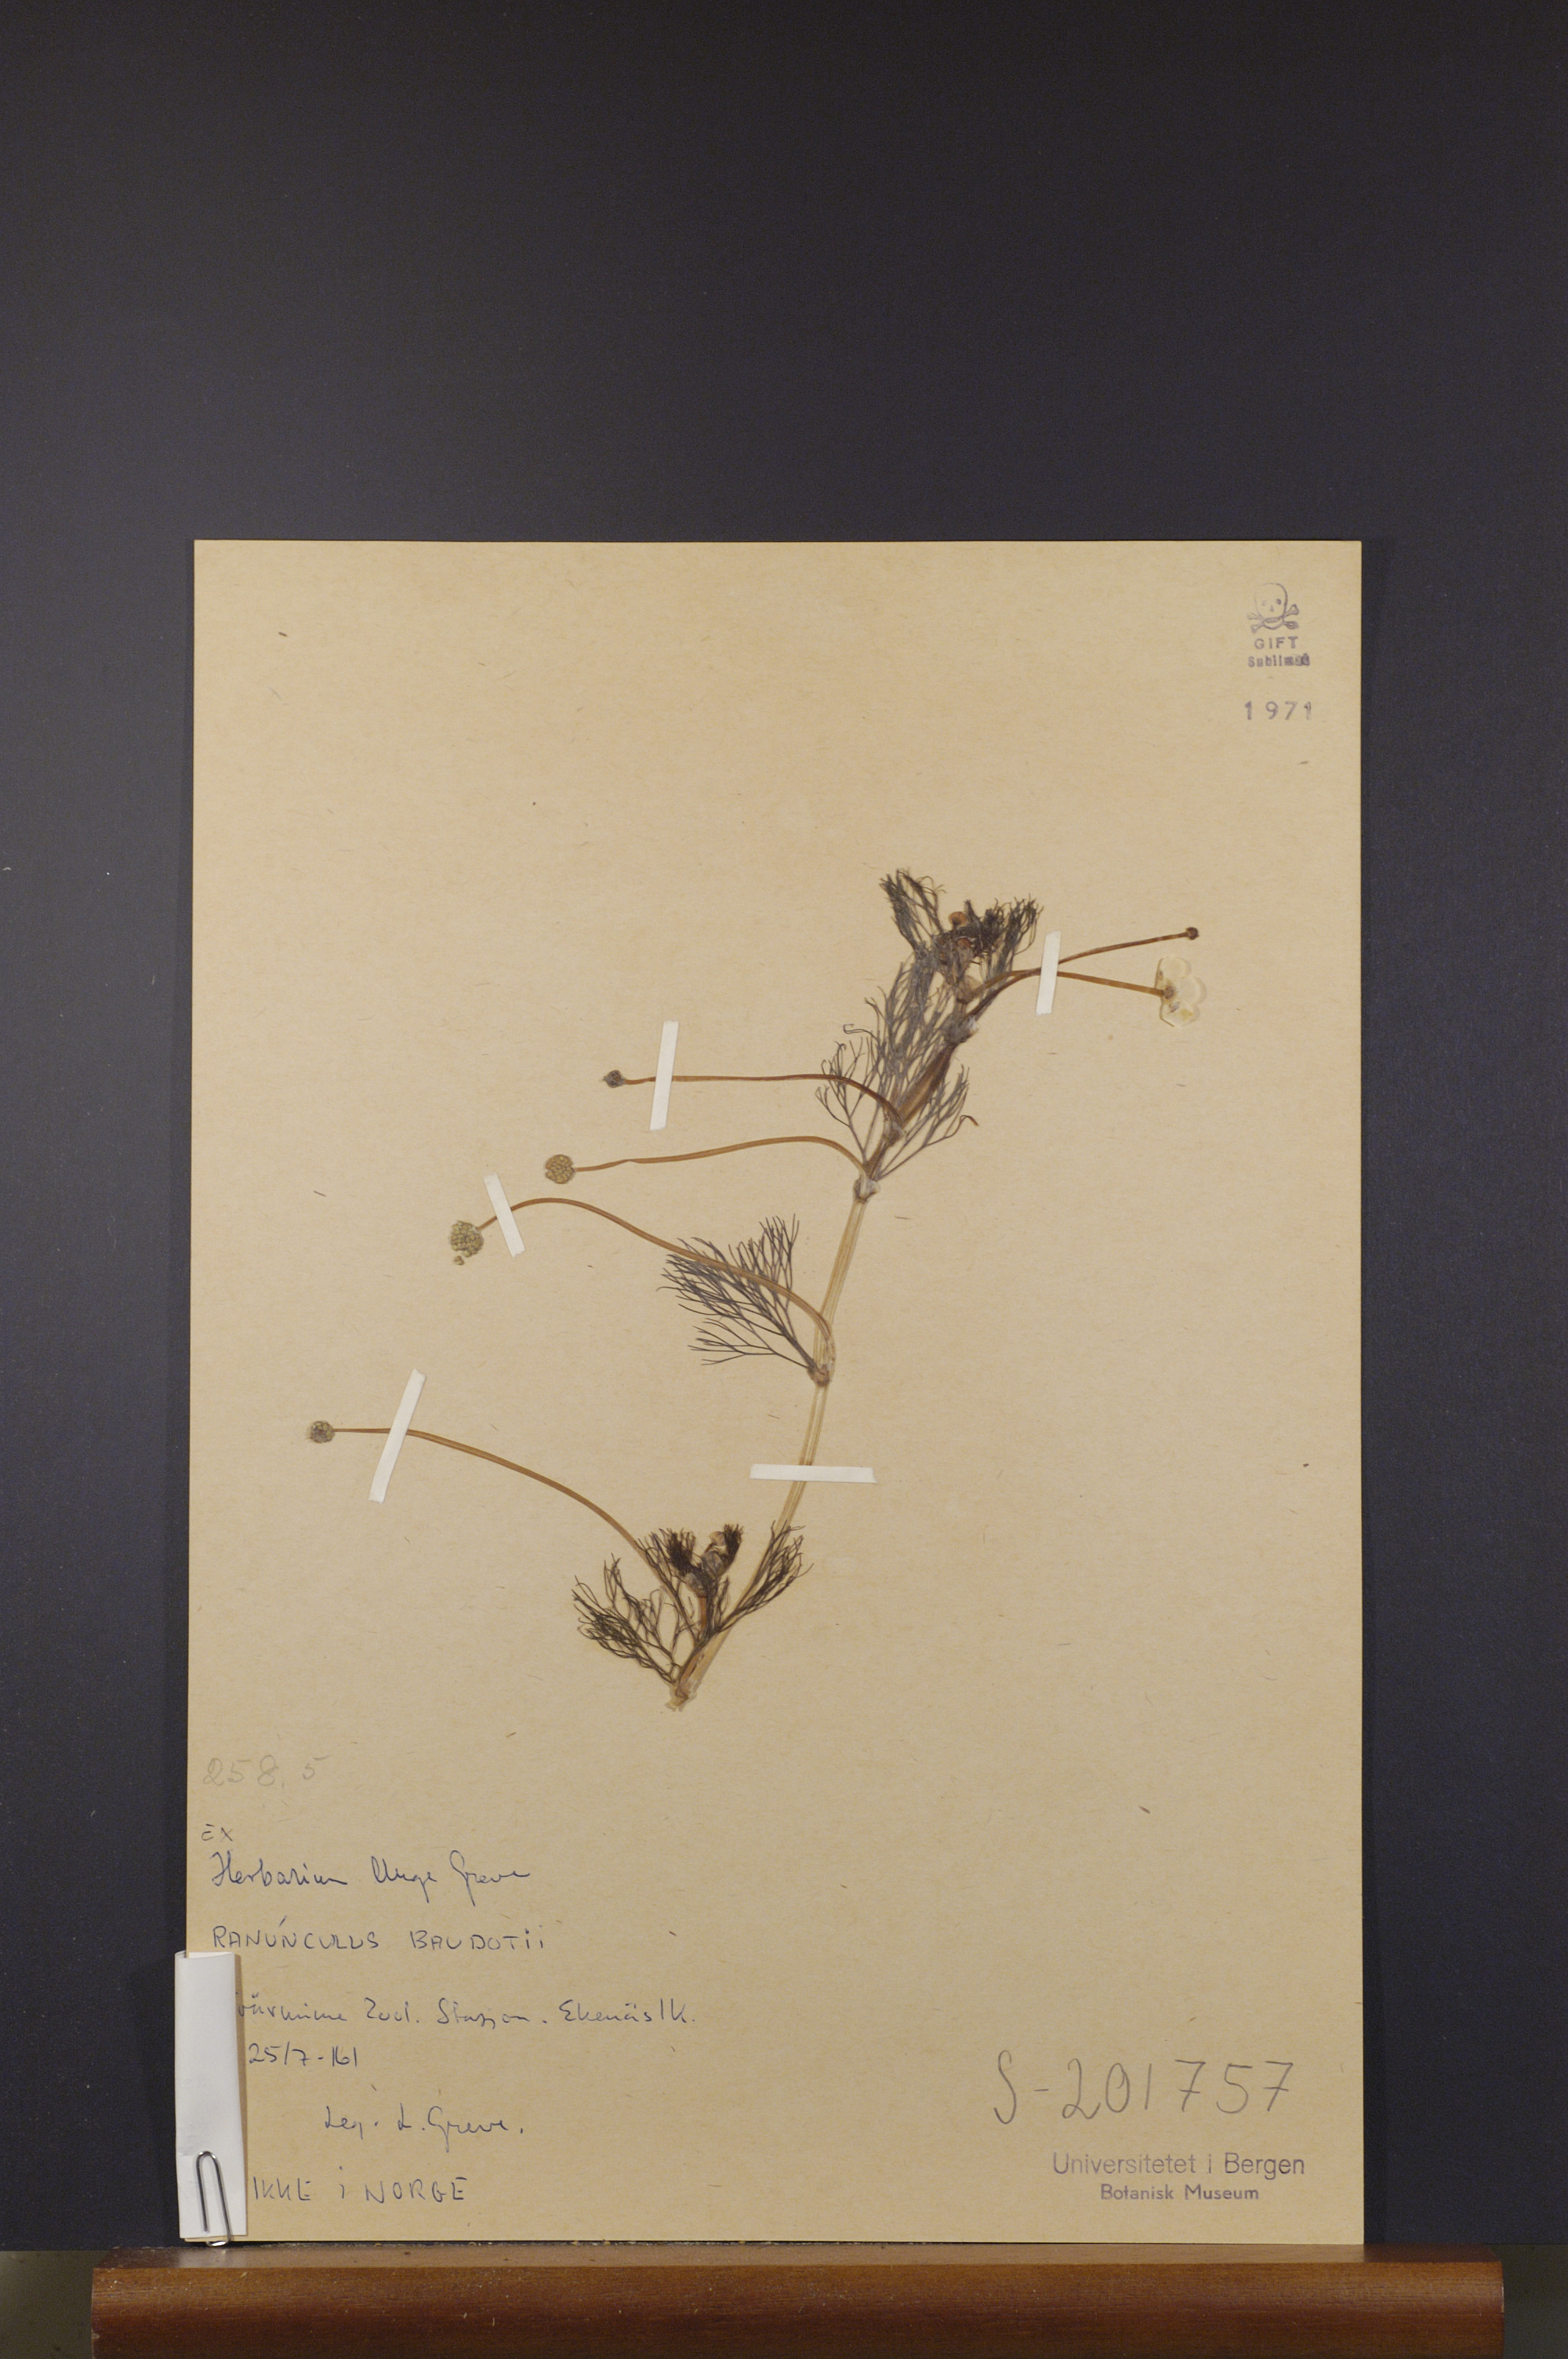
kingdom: Plantae
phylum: Tracheophyta
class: Magnoliopsida
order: Ranunculales
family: Ranunculaceae
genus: Ranunculus
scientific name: Ranunculus peltatus
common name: Pond water-crowfoot
